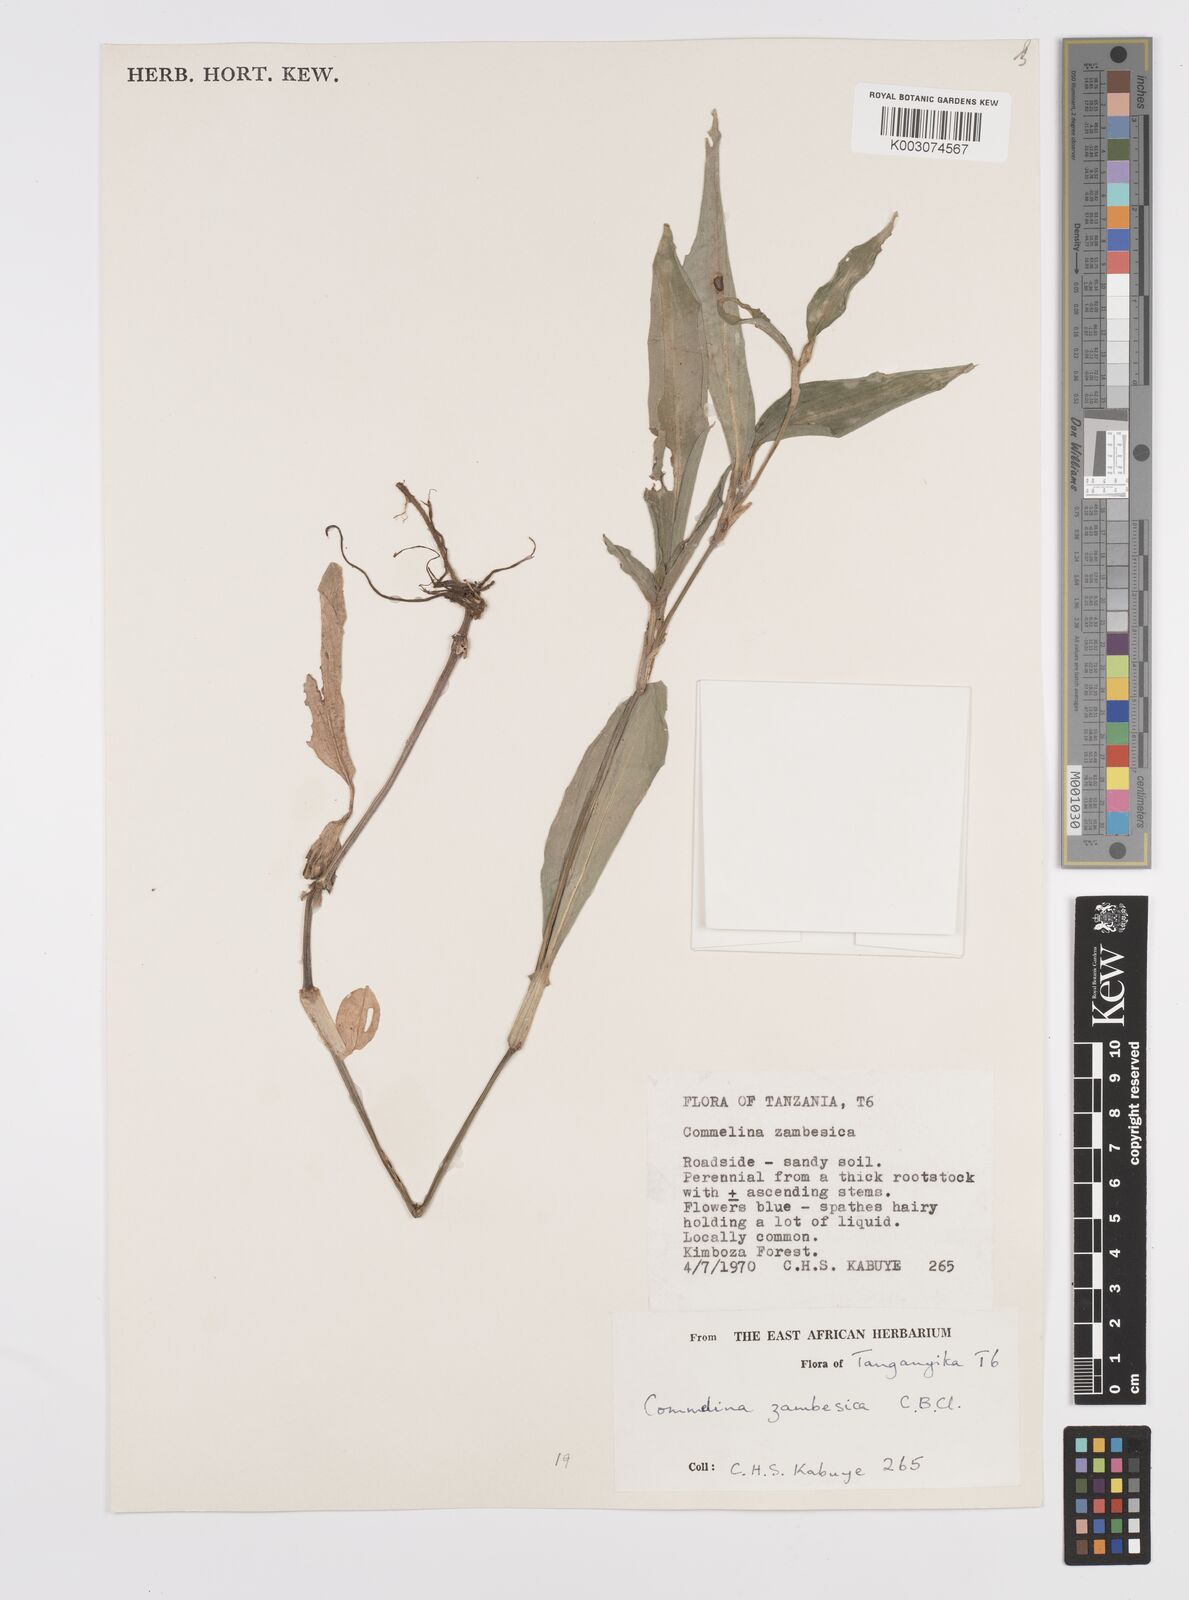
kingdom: Plantae
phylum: Tracheophyta
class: Liliopsida
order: Commelinales
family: Commelinaceae
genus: Commelina
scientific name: Commelina zambesica
